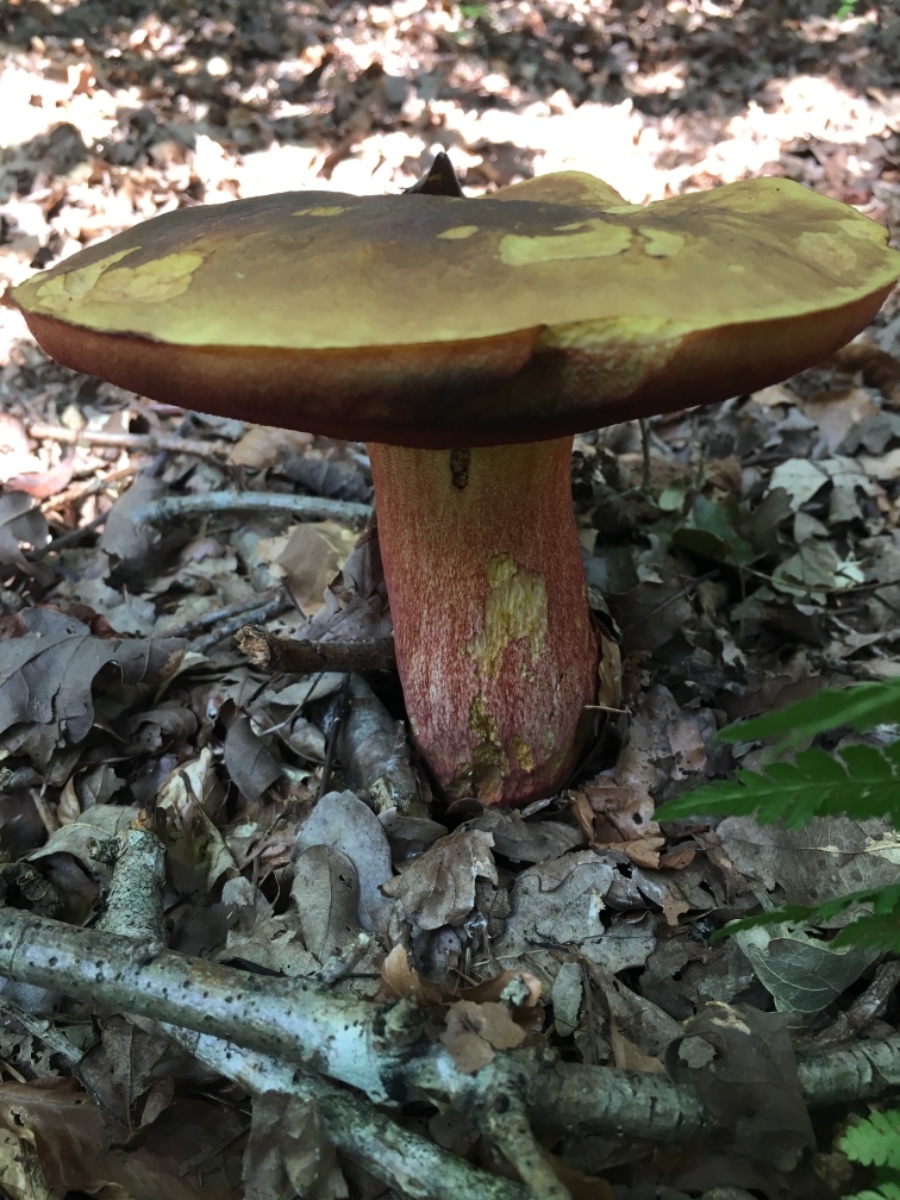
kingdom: Fungi
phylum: Basidiomycota
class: Agaricomycetes
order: Boletales
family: Boletaceae
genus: Neoboletus
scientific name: Neoboletus erythropus
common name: punktstokket indigorørhat
